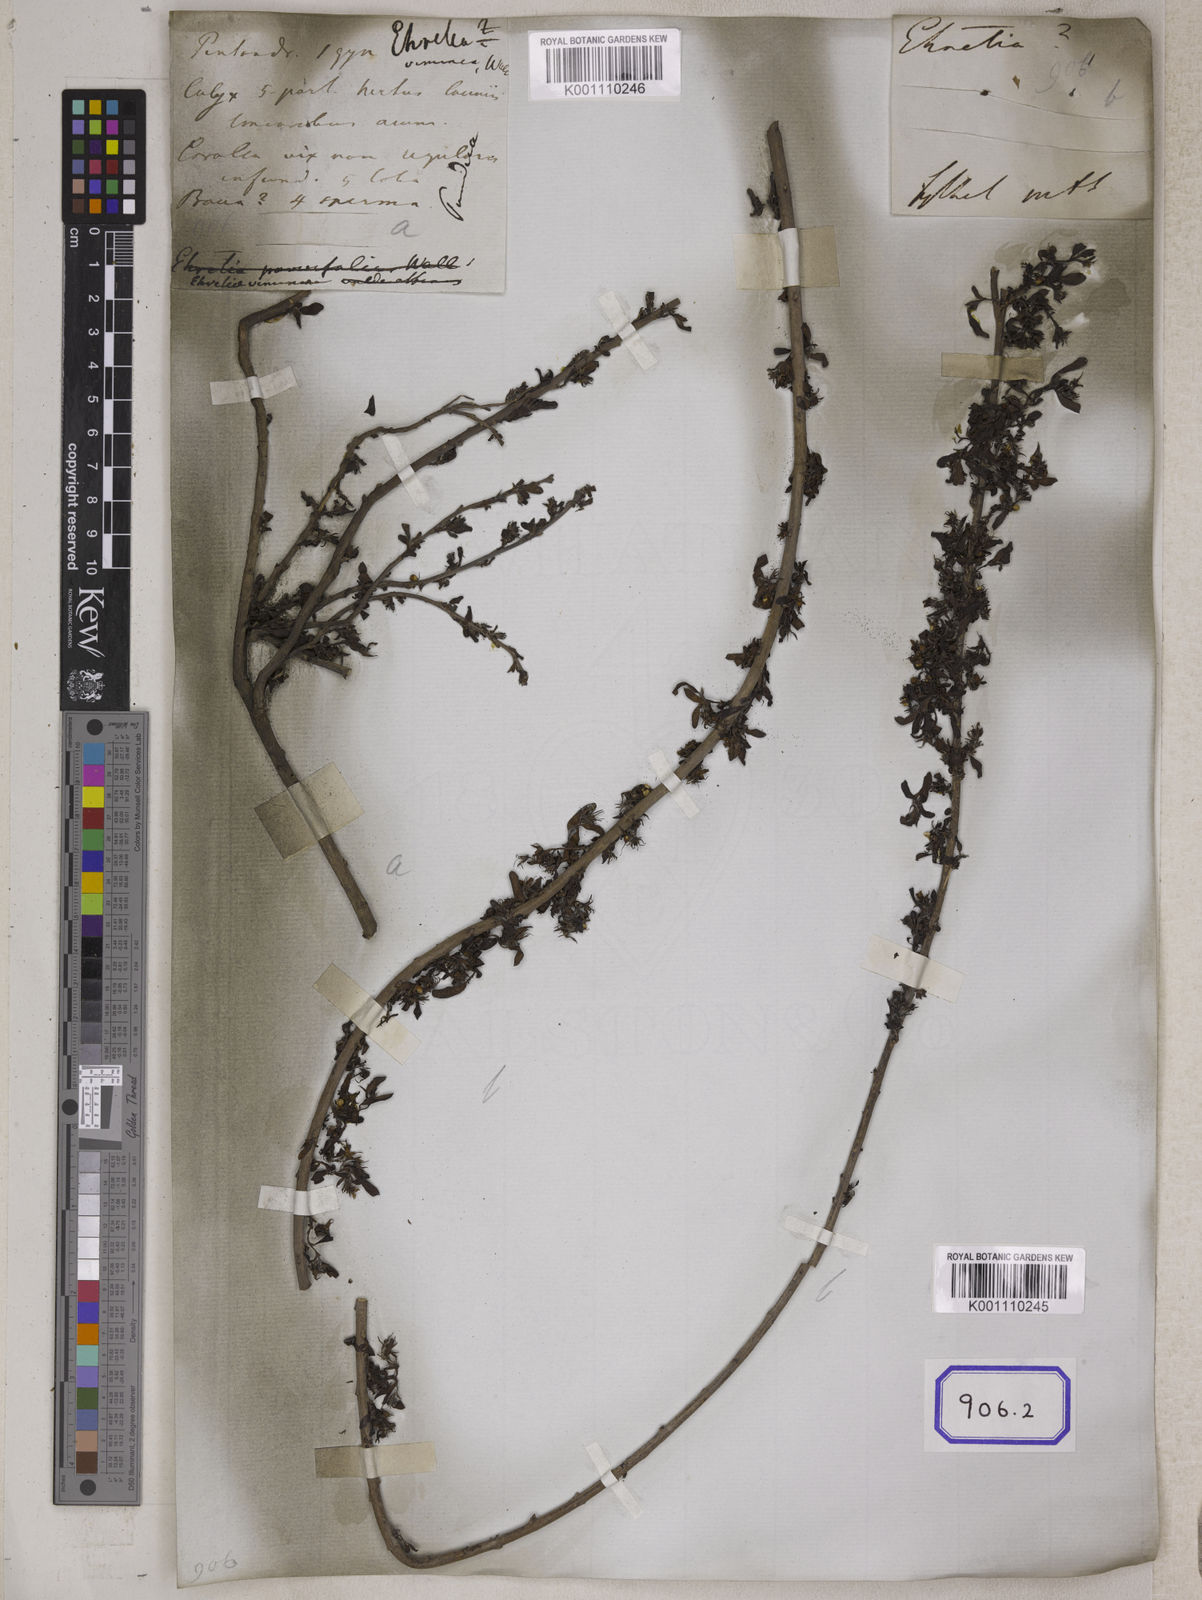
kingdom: Plantae
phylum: Tracheophyta
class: Magnoliopsida
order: Boraginales
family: Ehretiaceae
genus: Ehretia
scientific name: Ehretia
